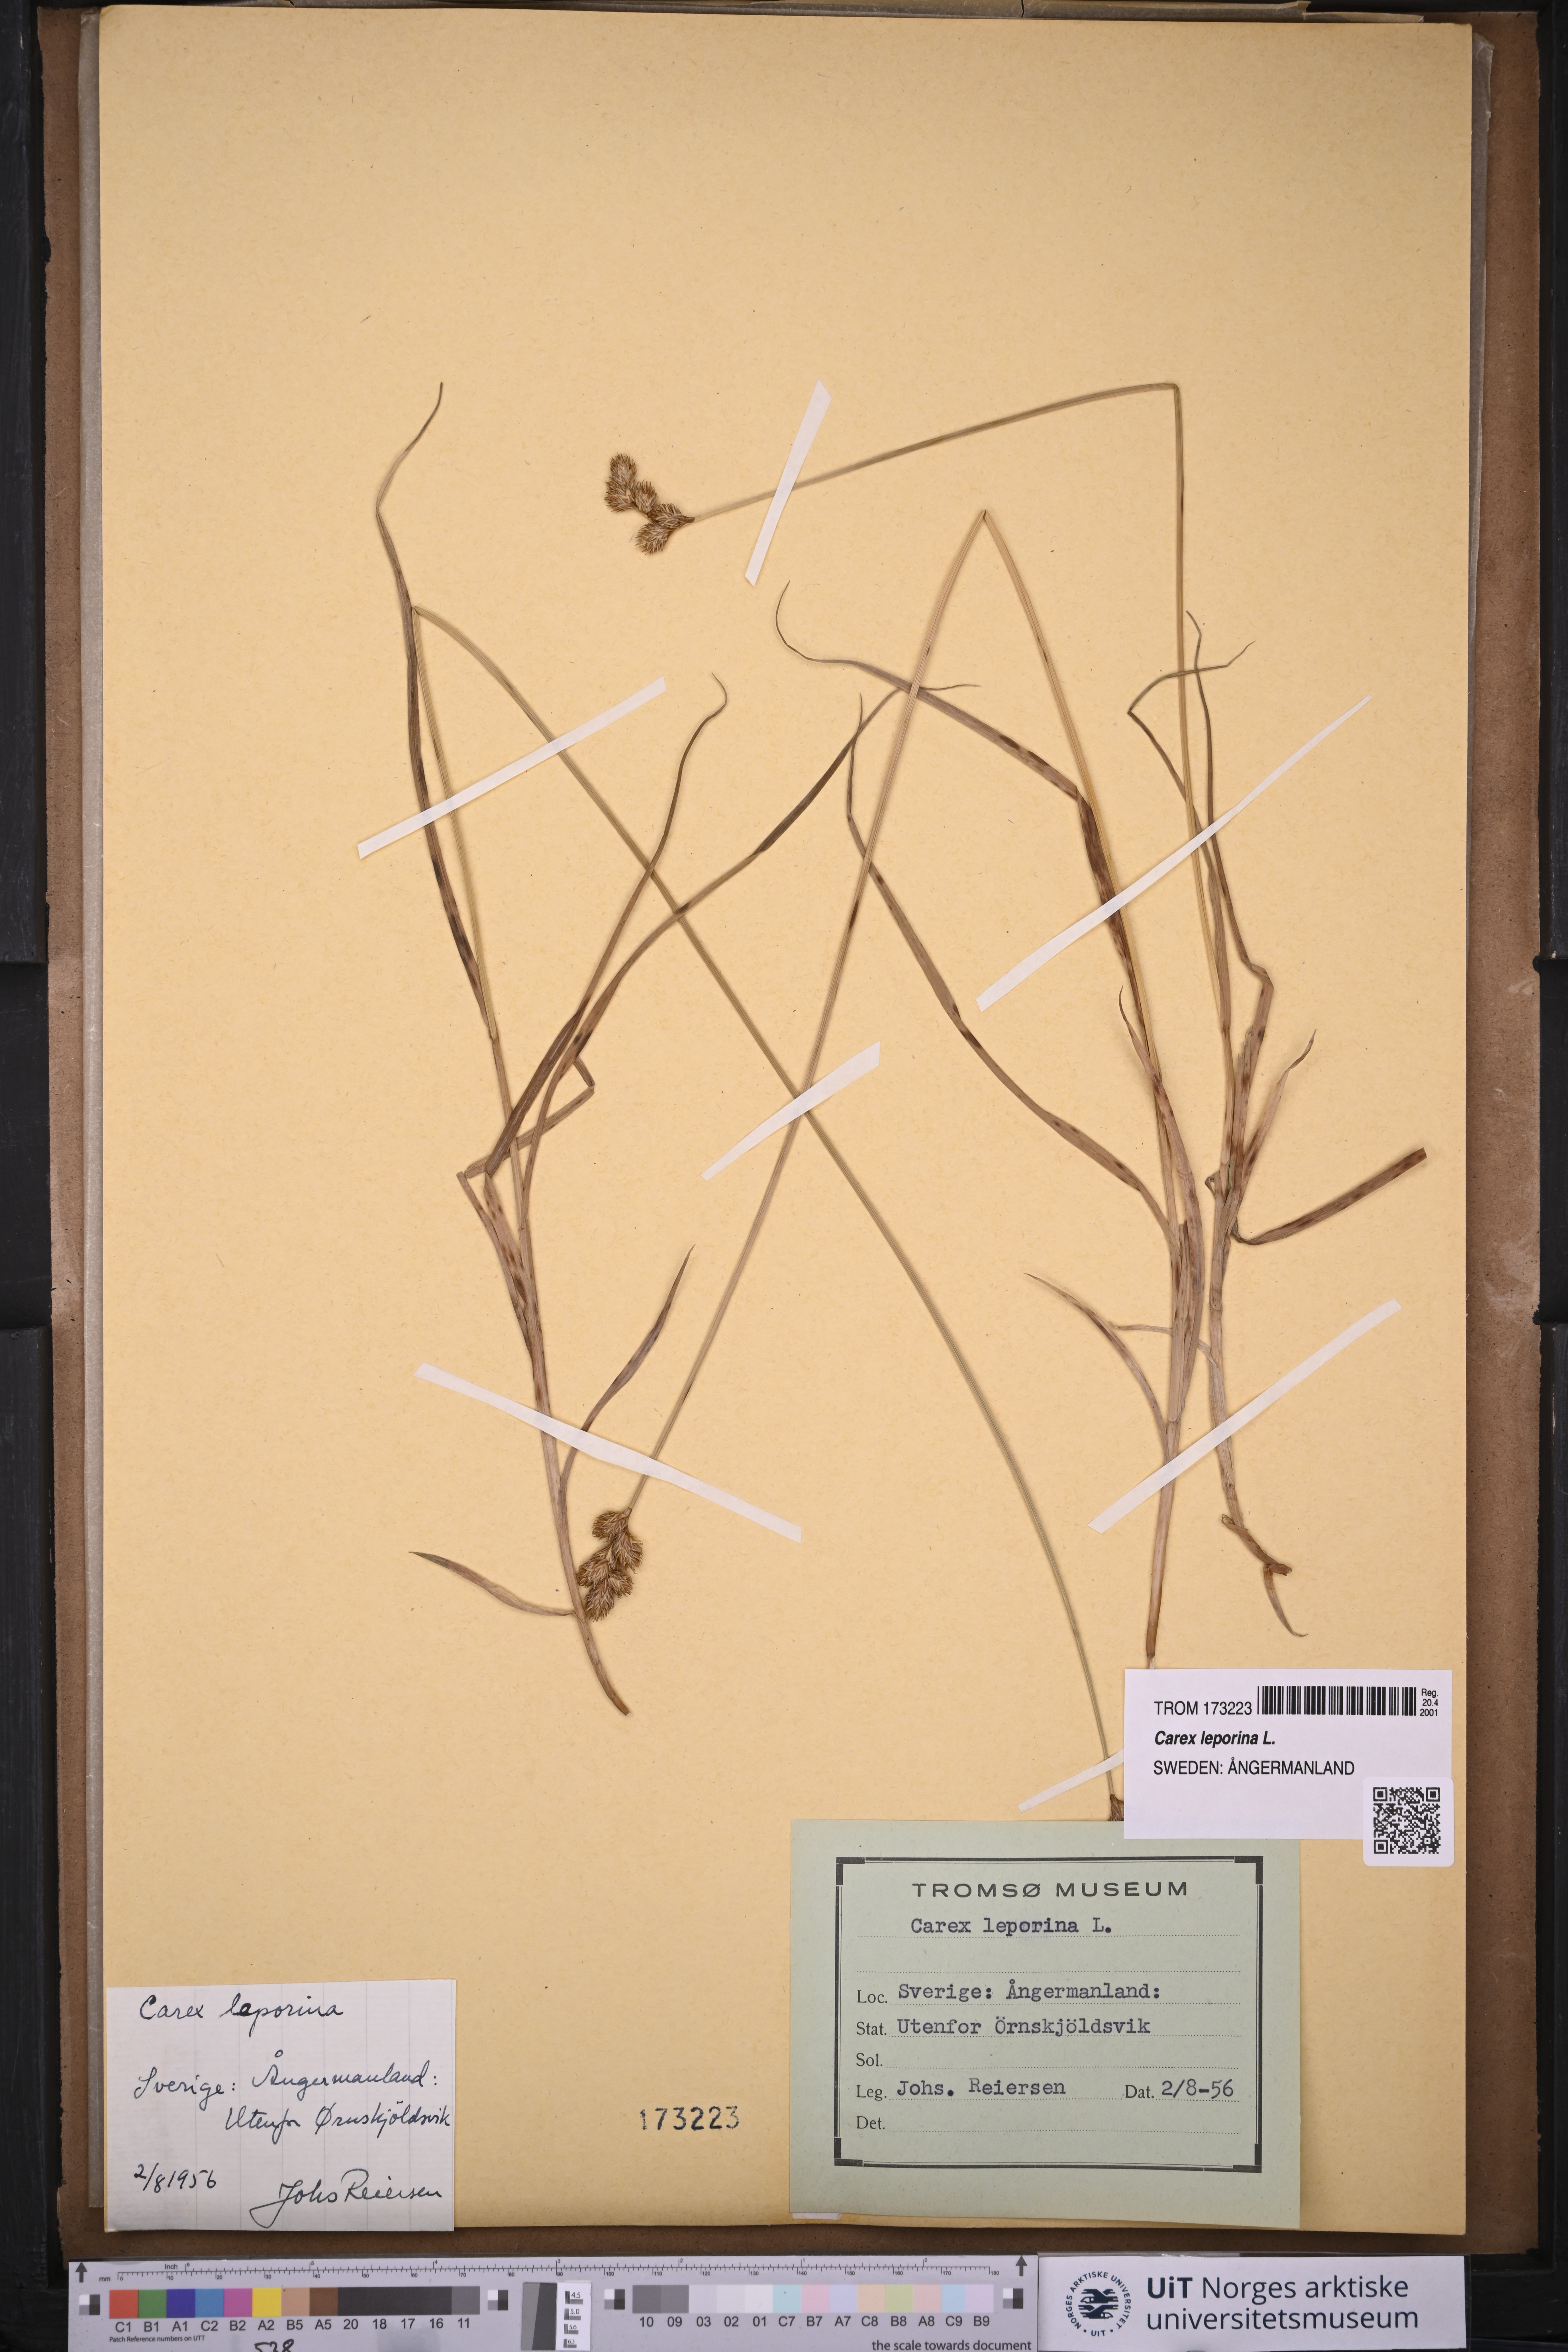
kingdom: Plantae
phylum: Tracheophyta
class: Liliopsida
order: Poales
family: Cyperaceae
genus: Carex
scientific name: Carex leporina
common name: Oval sedge
